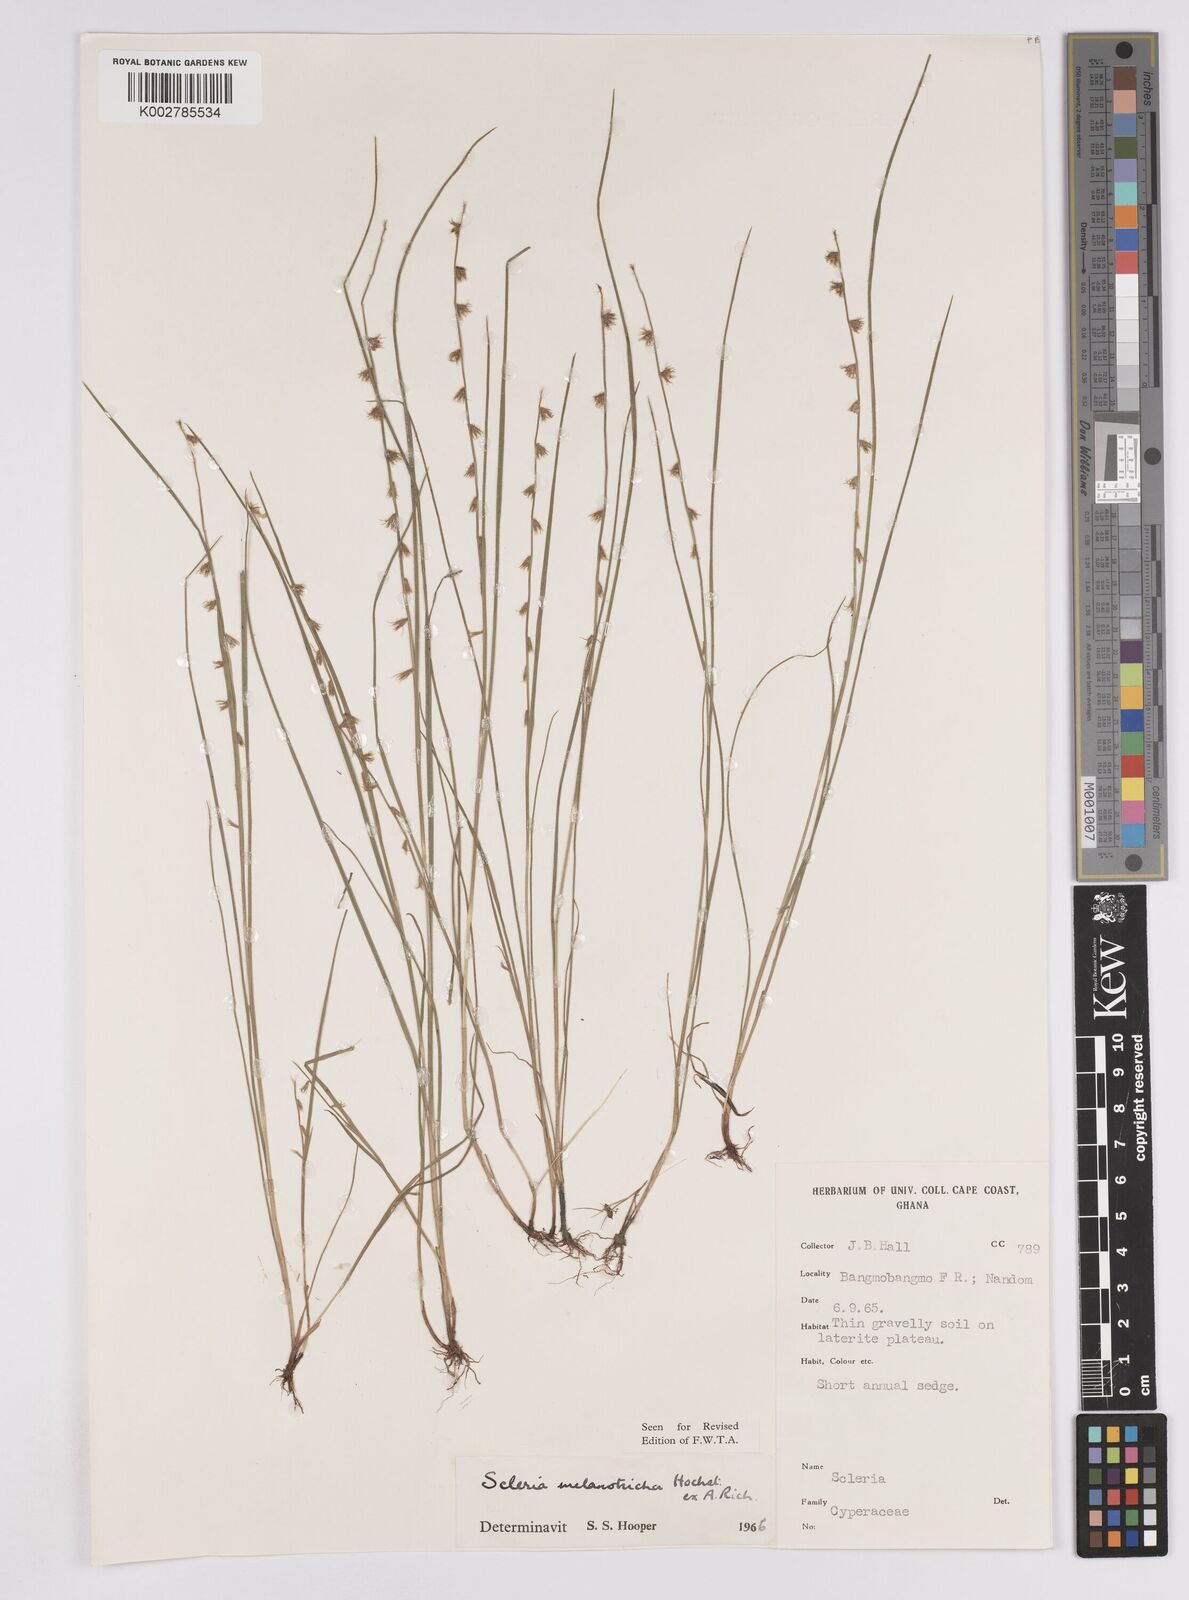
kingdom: Plantae
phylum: Tracheophyta
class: Liliopsida
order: Poales
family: Cyperaceae
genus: Scleria
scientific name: Scleria melanotricha
